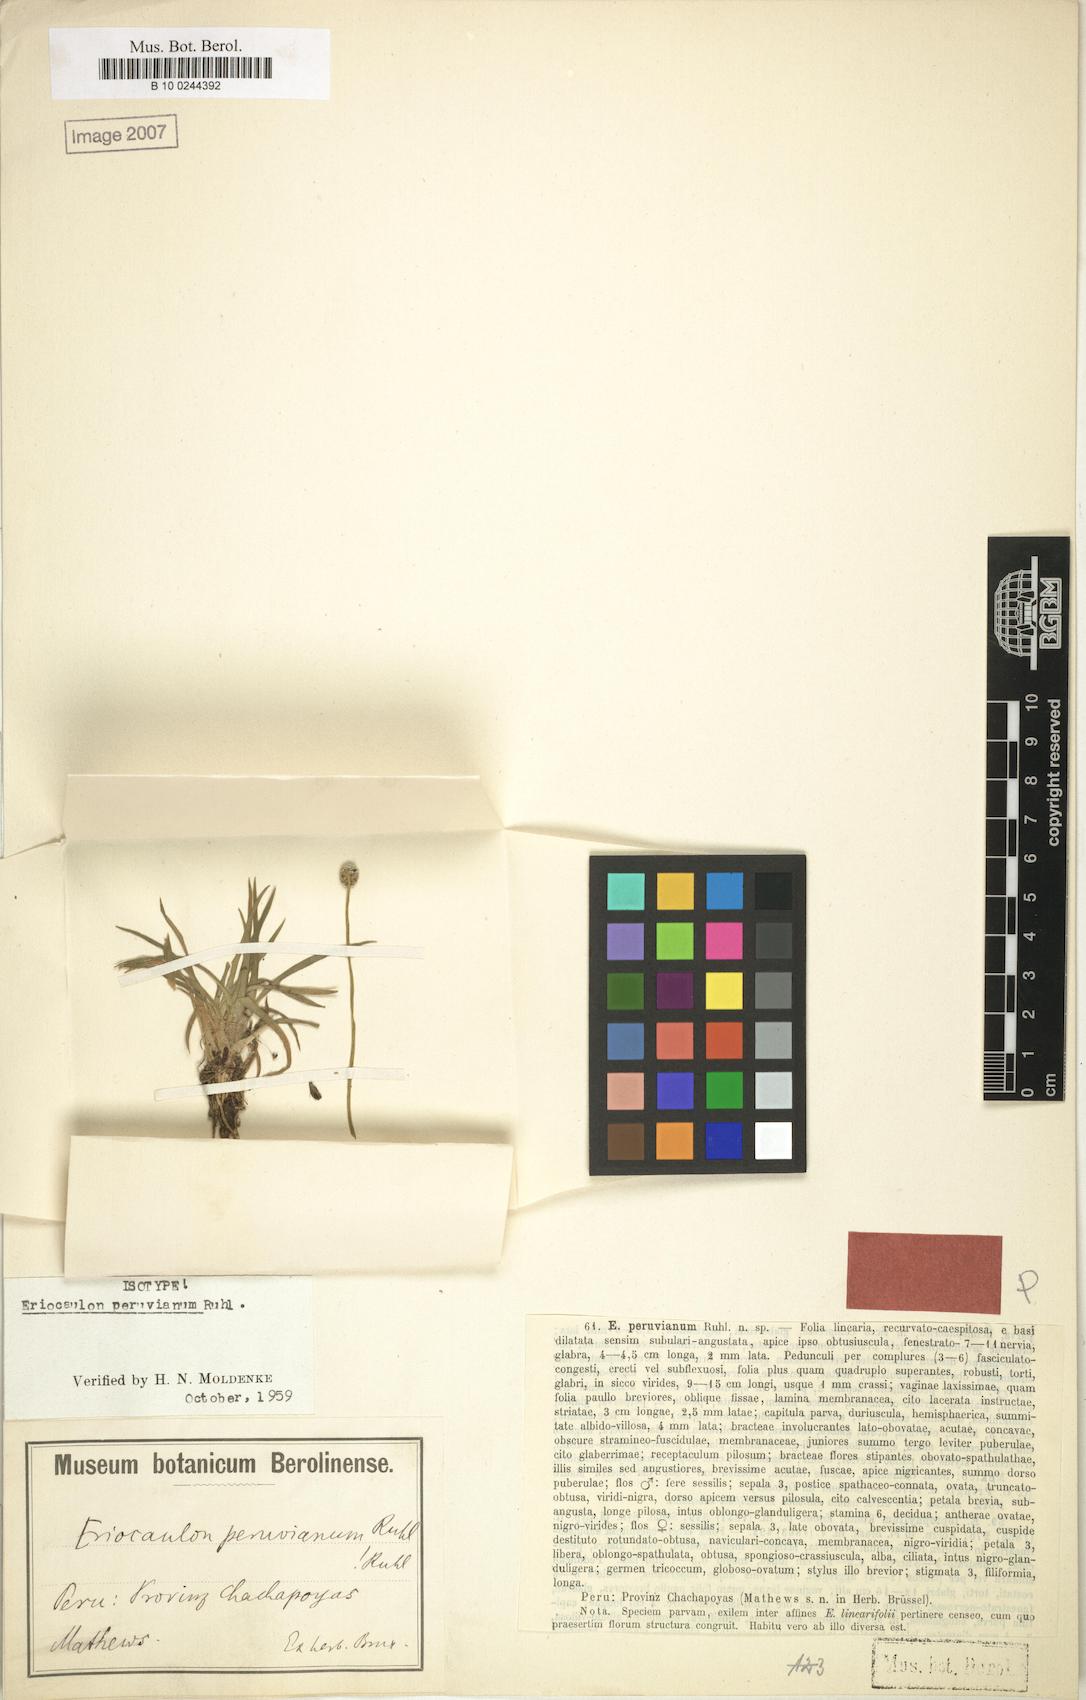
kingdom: Plantae
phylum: Tracheophyta
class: Liliopsida
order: Poales
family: Eriocaulaceae
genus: Eriocaulon
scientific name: Eriocaulon peruvianum
